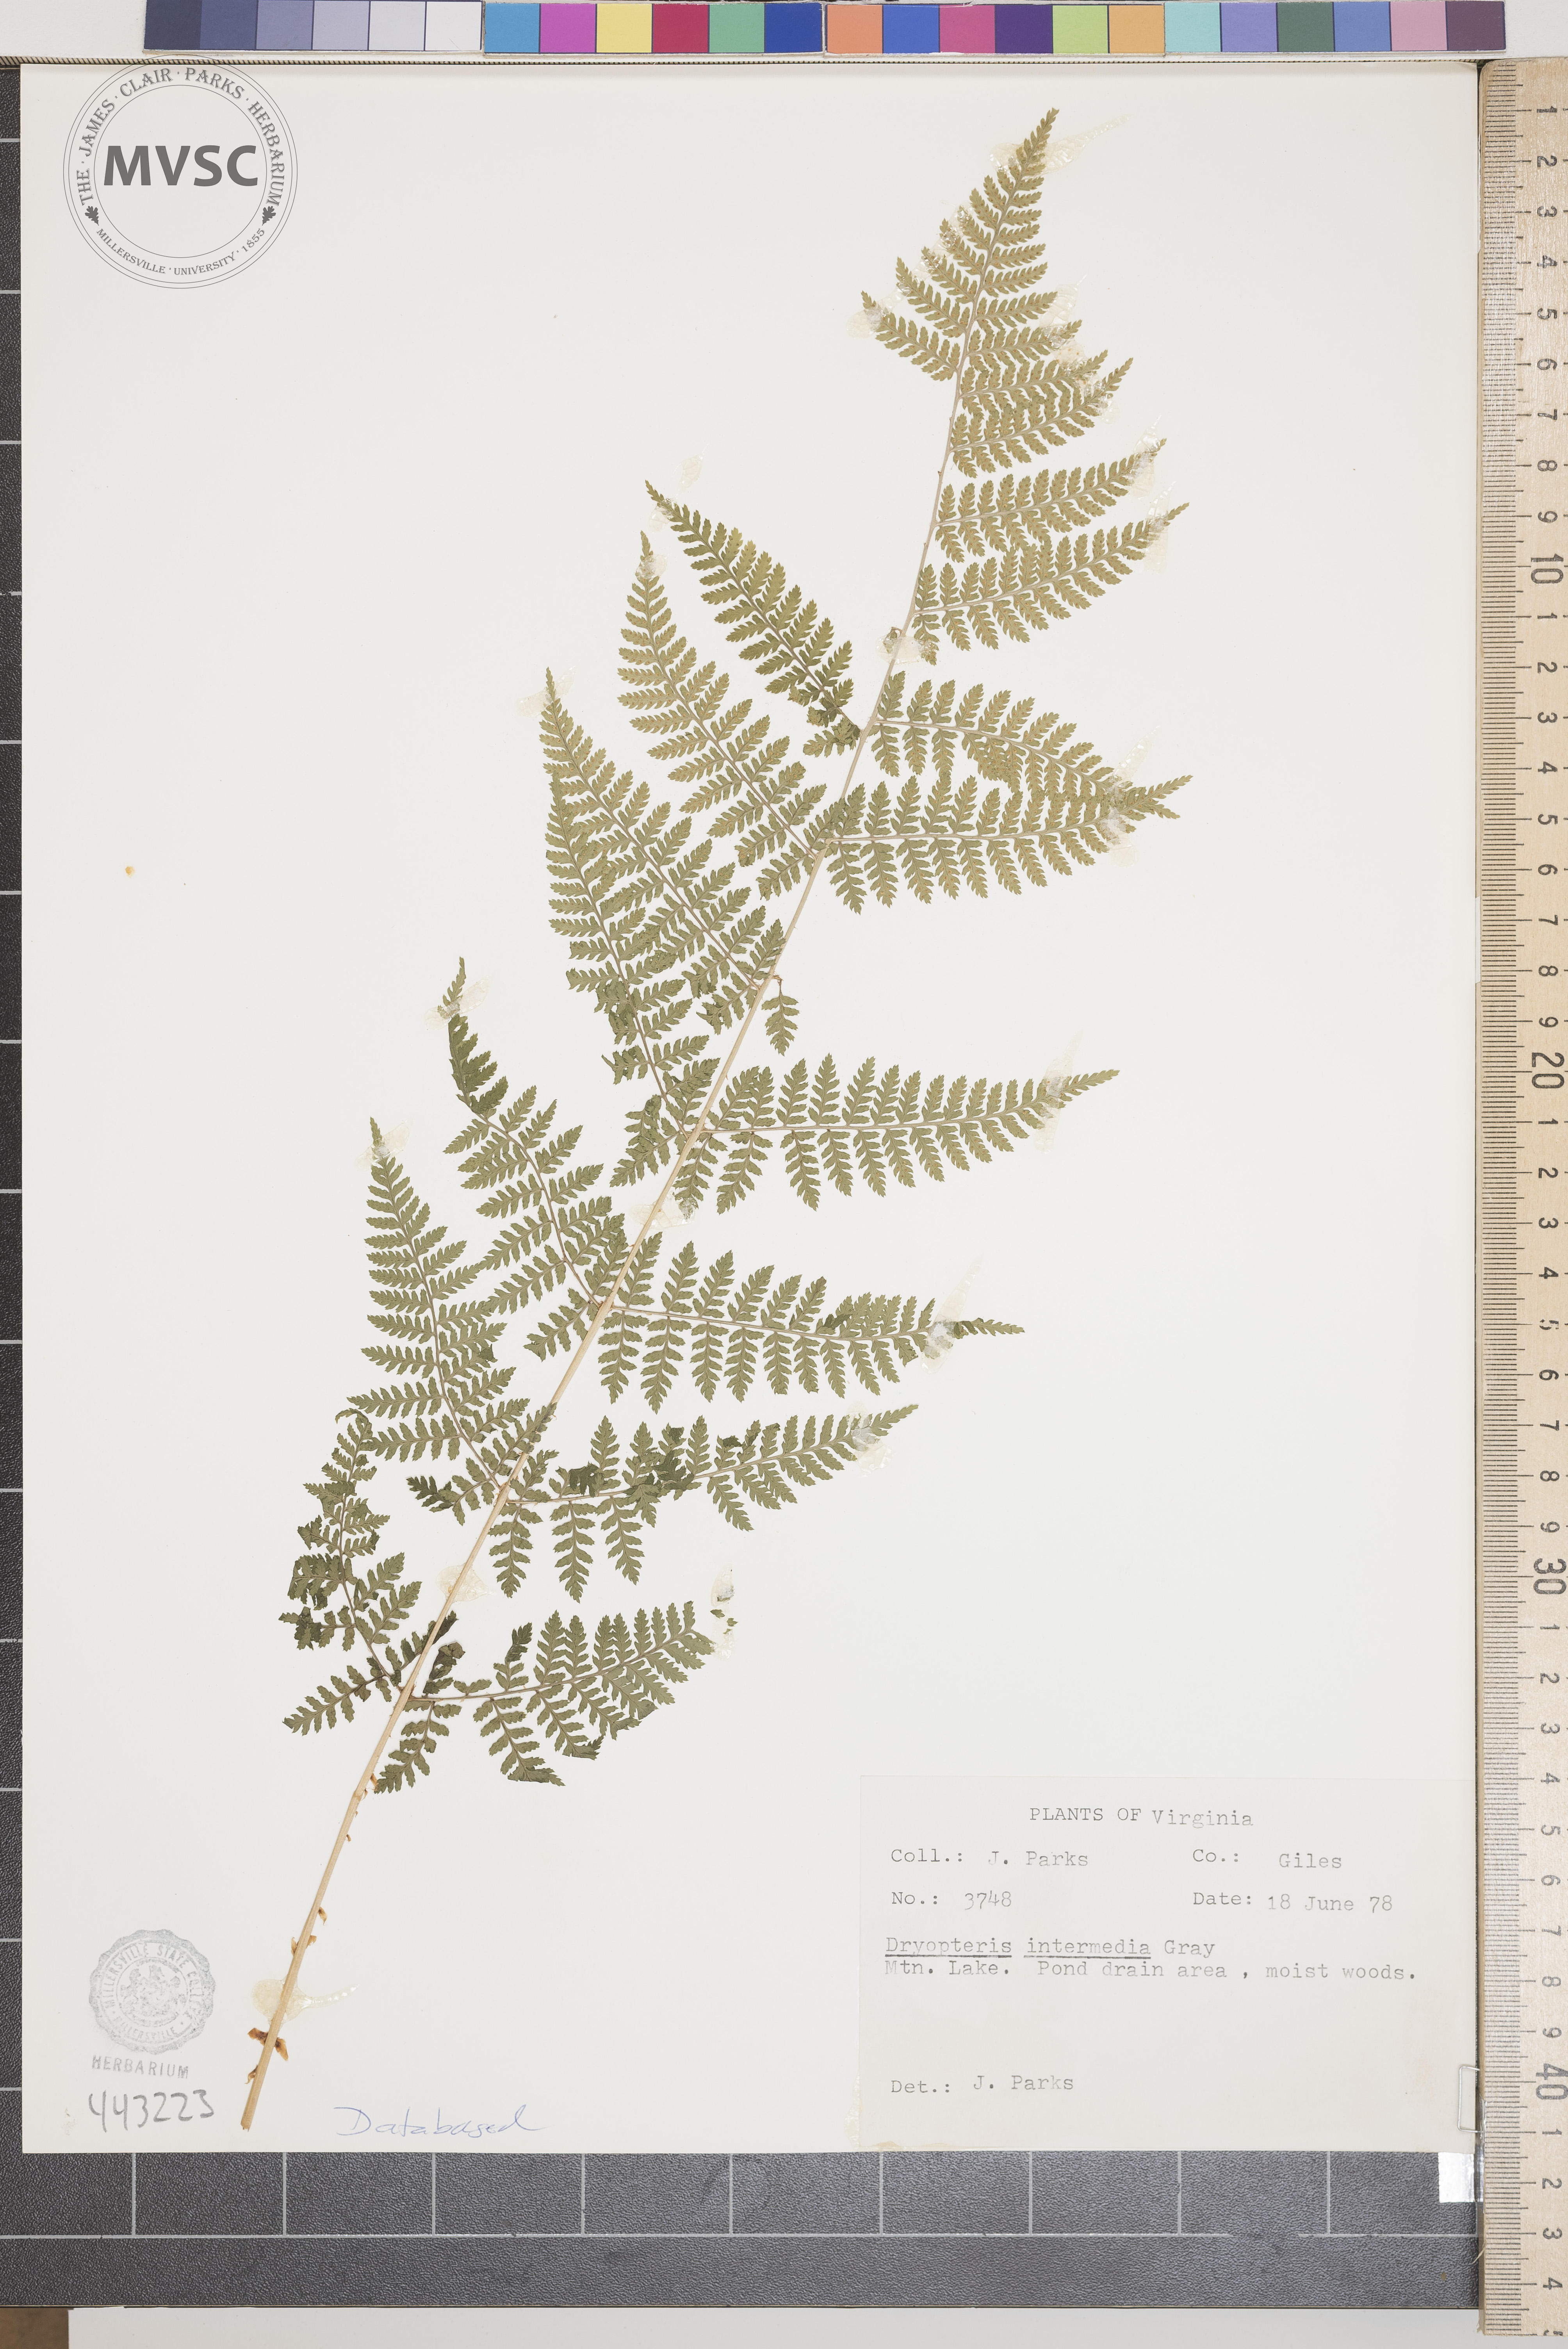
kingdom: Plantae
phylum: Tracheophyta
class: Polypodiopsida
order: Polypodiales
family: Dryopteridaceae
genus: Dryopteris
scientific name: Dryopteris intermedia
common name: Evergreen wood fern
